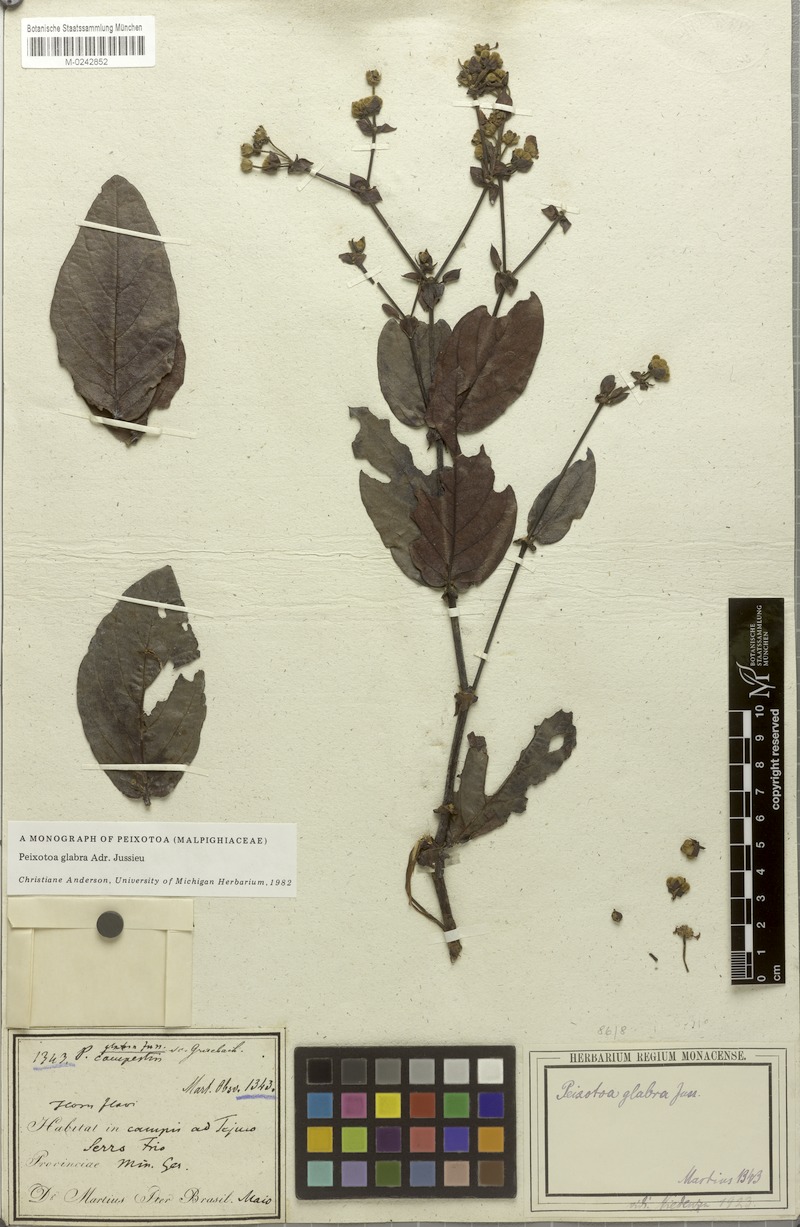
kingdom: Plantae
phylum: Tracheophyta
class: Magnoliopsida
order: Malpighiales
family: Malpighiaceae
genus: Peixotoa
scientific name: Peixotoa glabra
